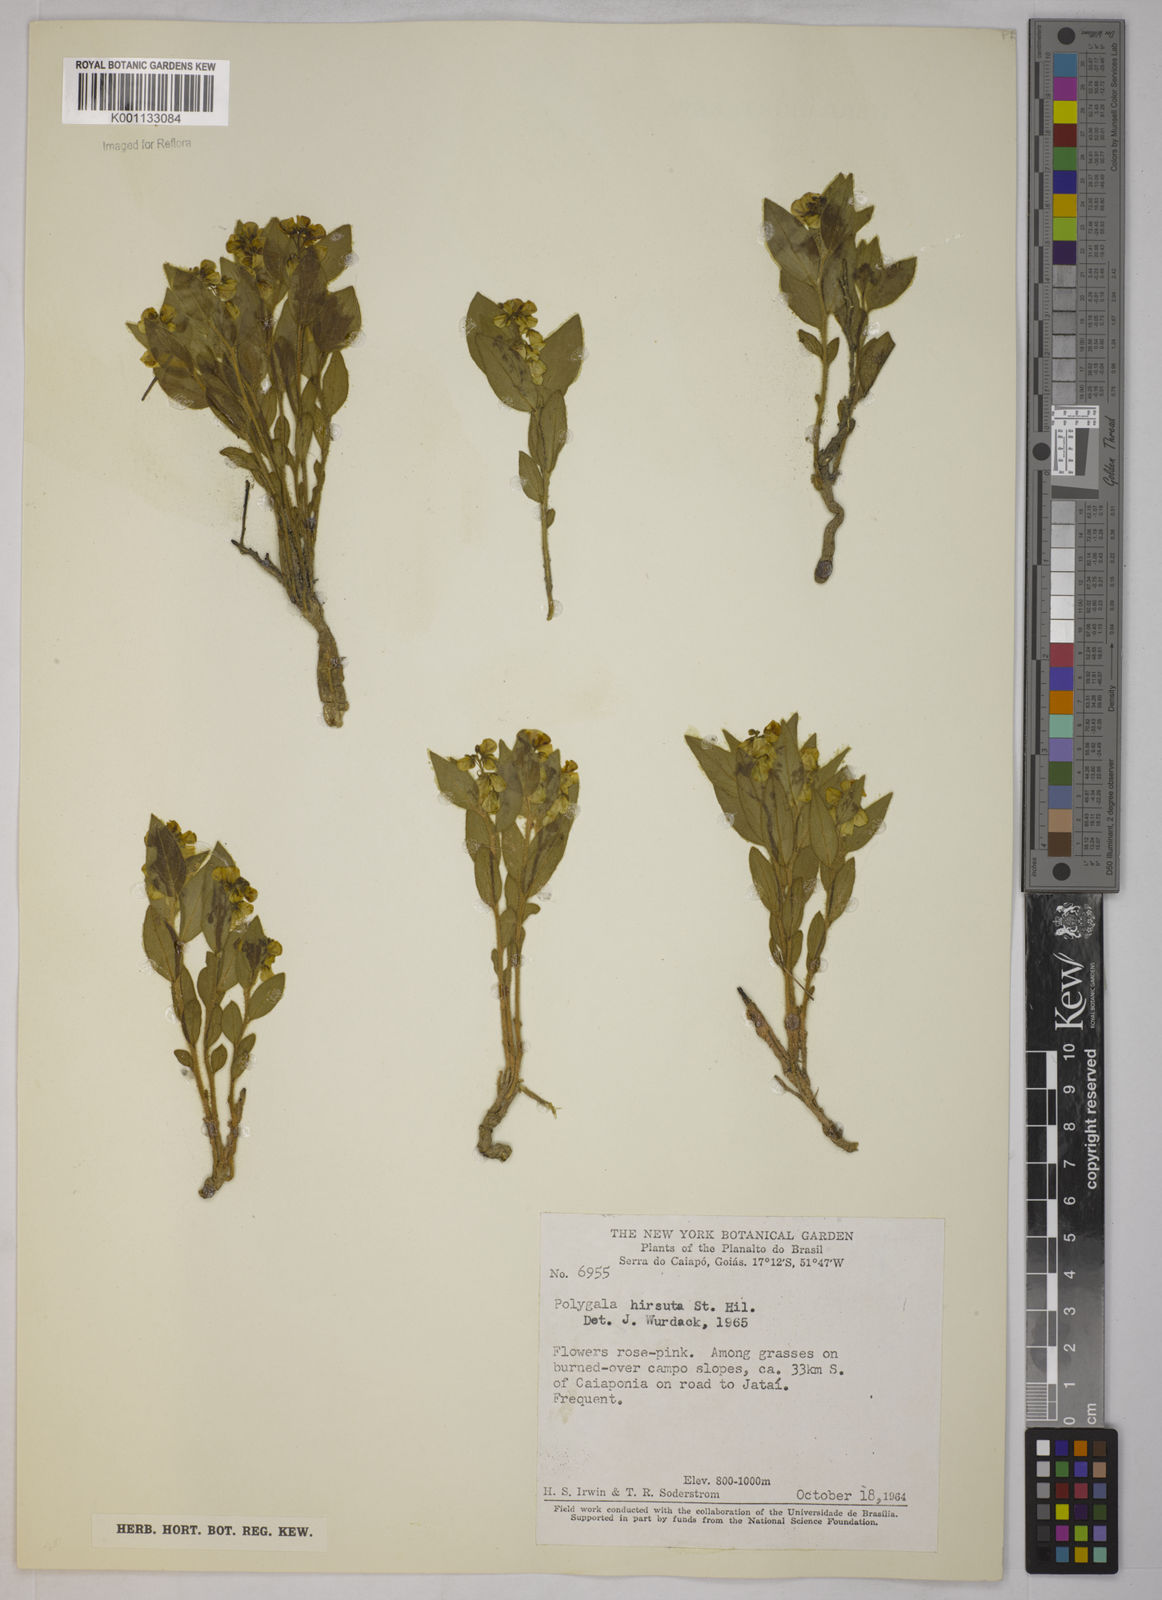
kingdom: Plantae
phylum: Tracheophyta
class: Magnoliopsida
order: Fabales
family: Polygalaceae
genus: Asemeia
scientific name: Asemeia hirsuta
